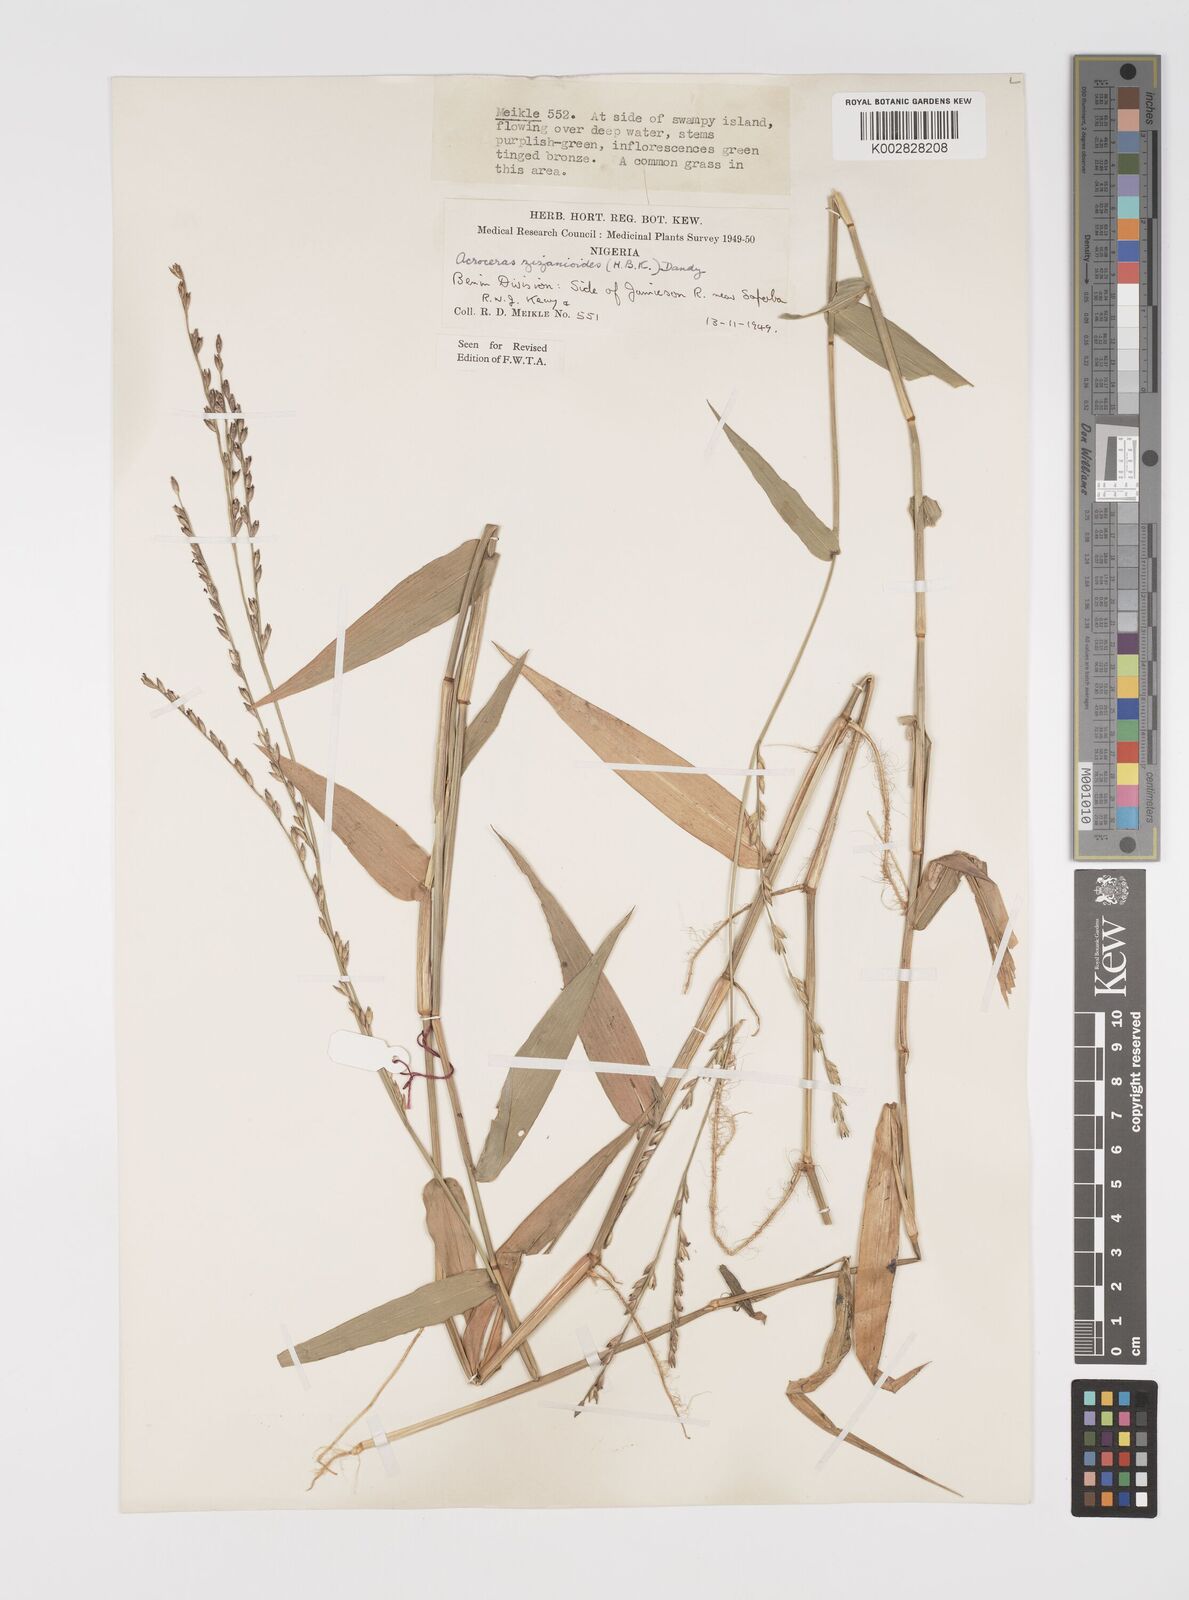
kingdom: Plantae
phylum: Tracheophyta
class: Liliopsida
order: Poales
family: Poaceae
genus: Acroceras
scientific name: Acroceras zizanioides
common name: Oat grass
